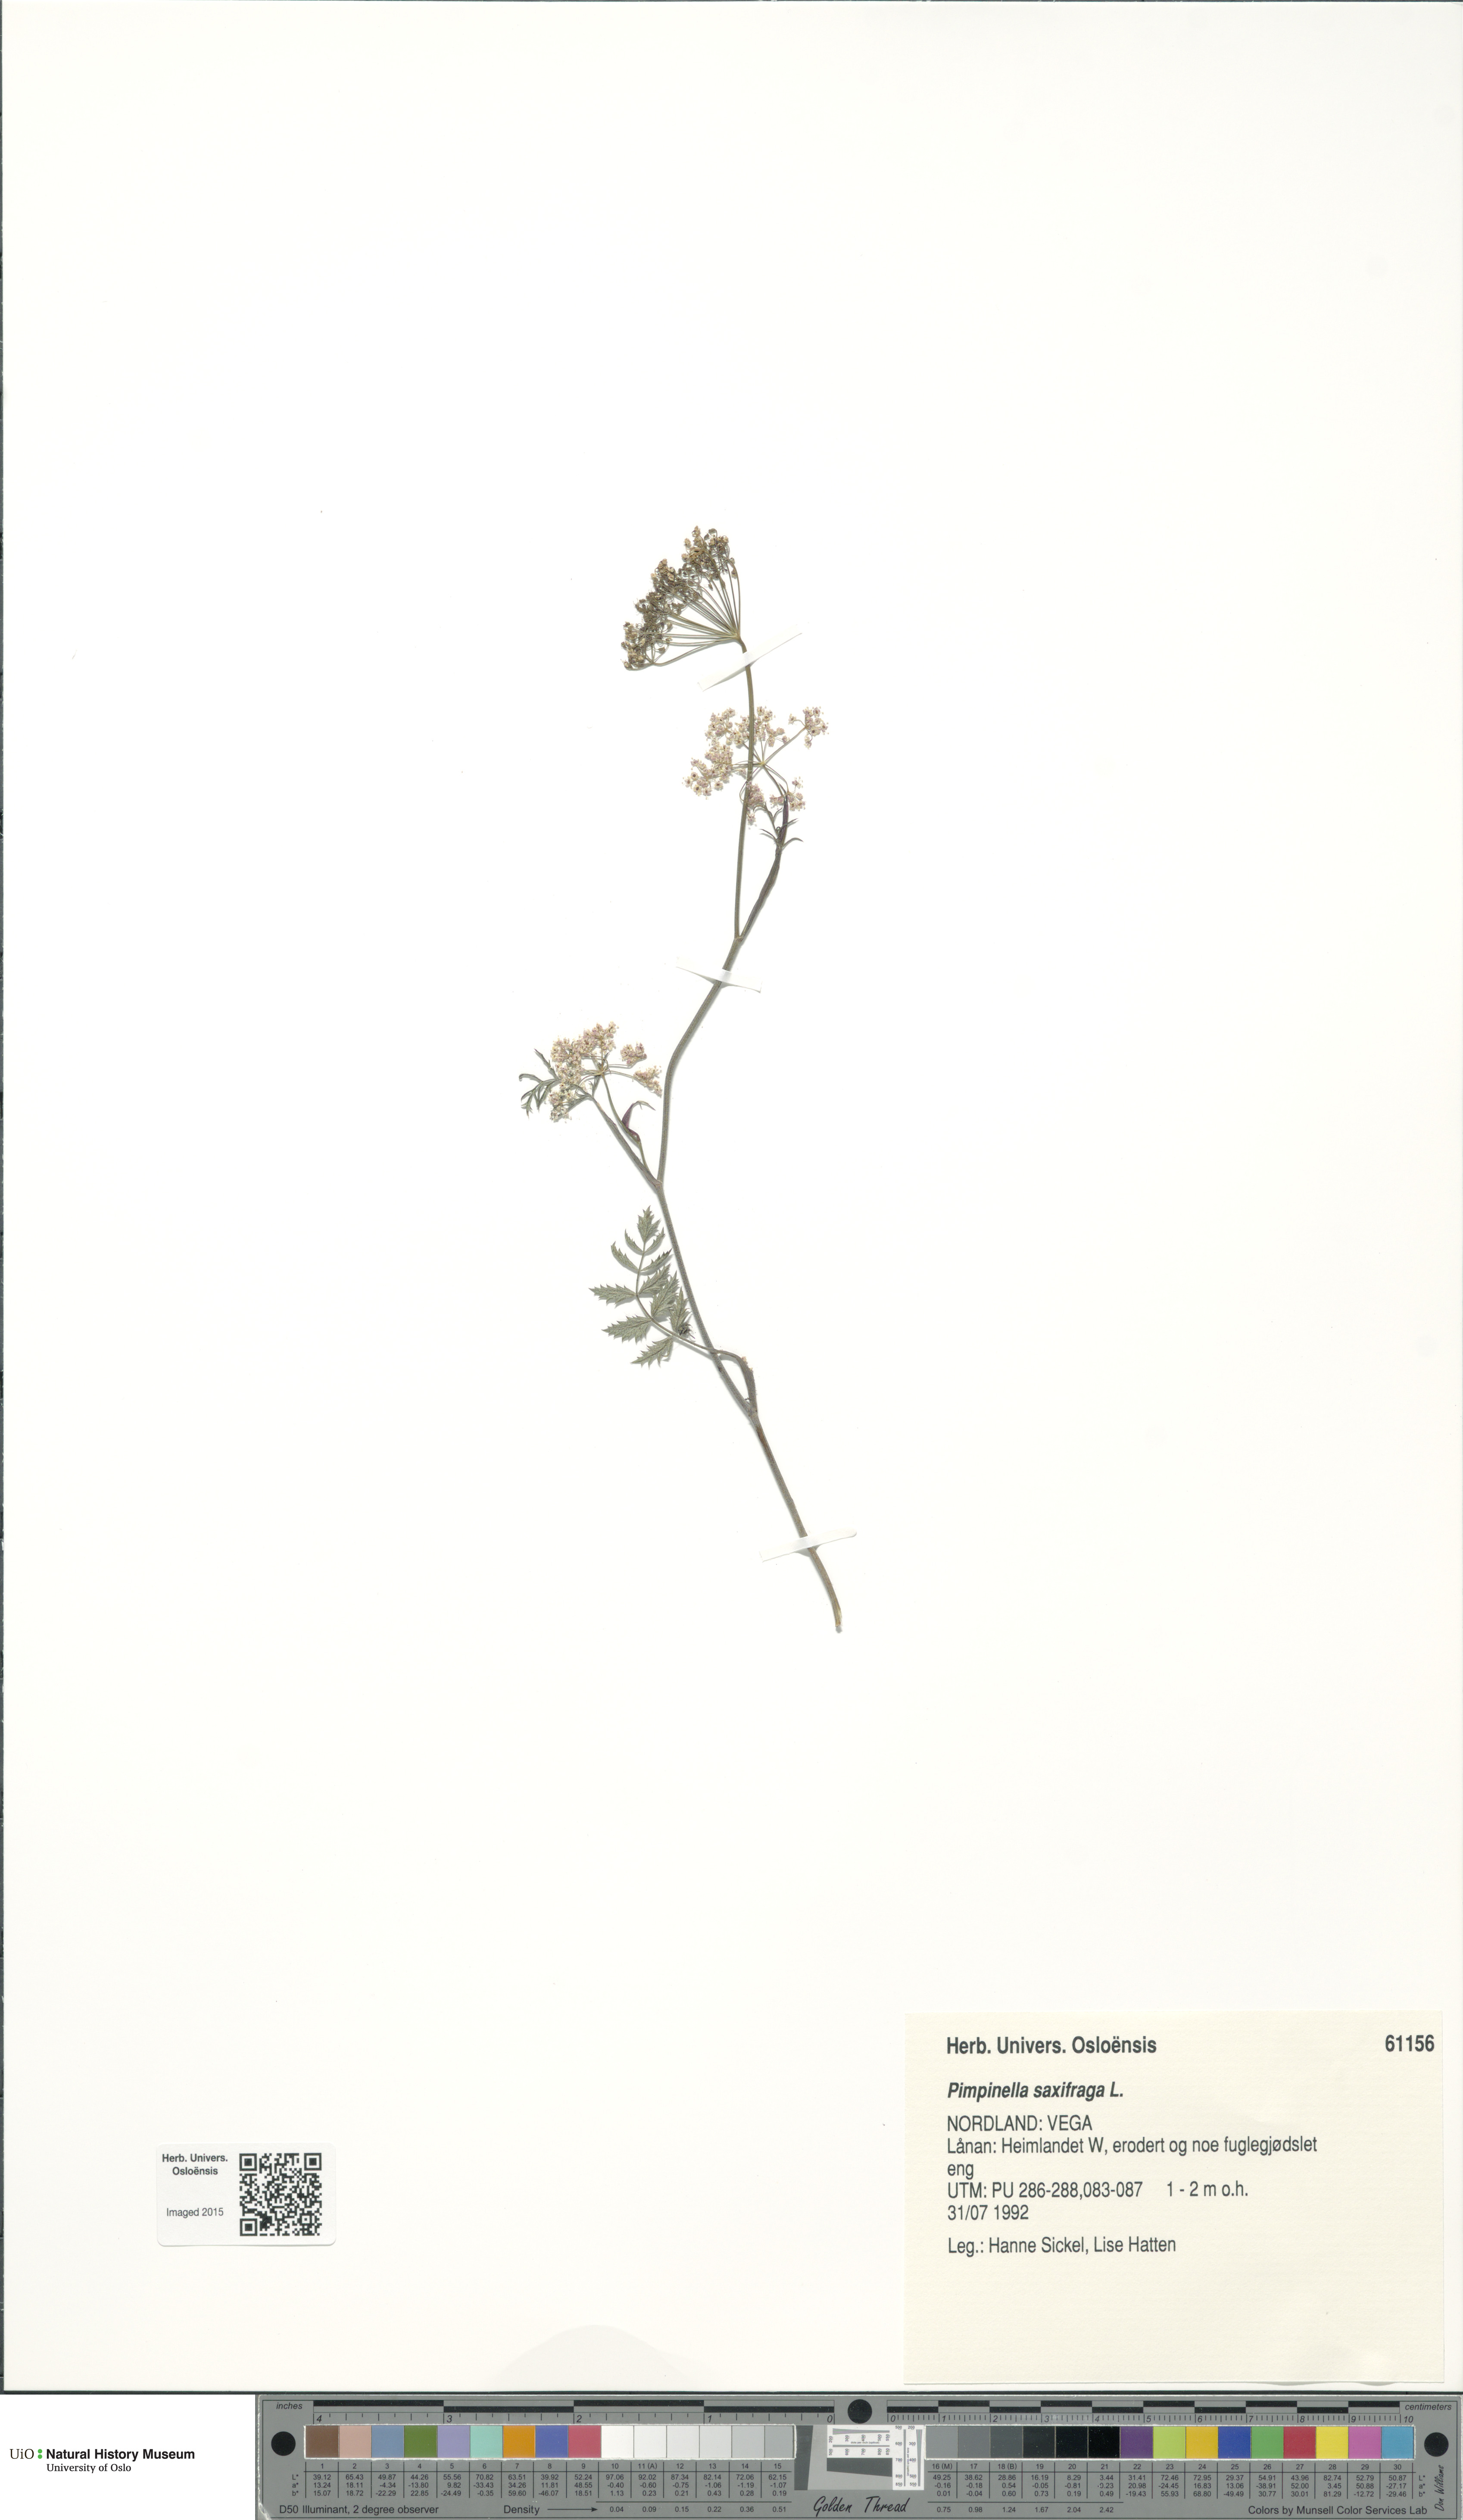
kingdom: Plantae
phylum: Tracheophyta
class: Magnoliopsida
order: Apiales
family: Apiaceae
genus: Pimpinella
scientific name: Pimpinella saxifraga
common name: Burnet-saxifrage
